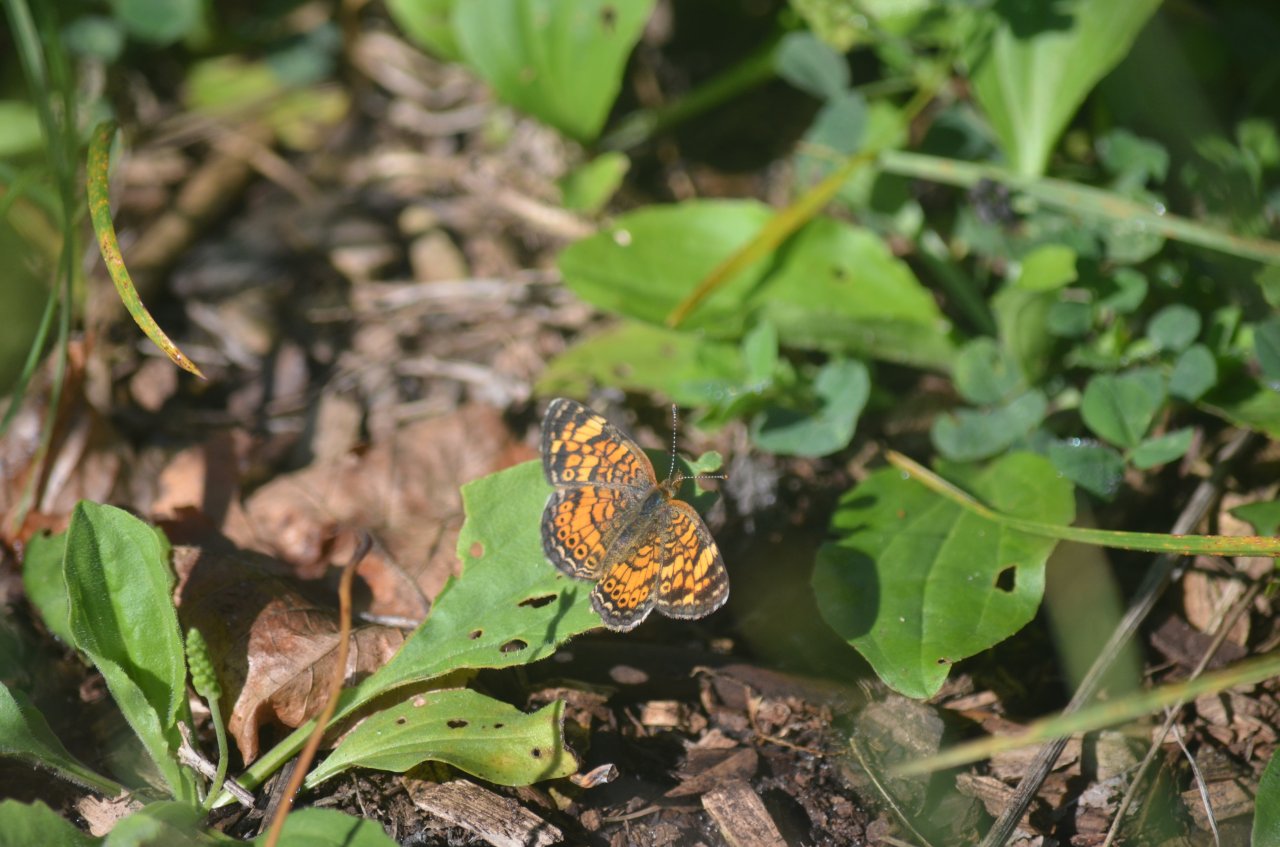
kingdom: Animalia
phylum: Arthropoda
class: Insecta
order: Lepidoptera
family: Nymphalidae
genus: Phyciodes
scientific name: Phyciodes tharos
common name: Northern Crescent
